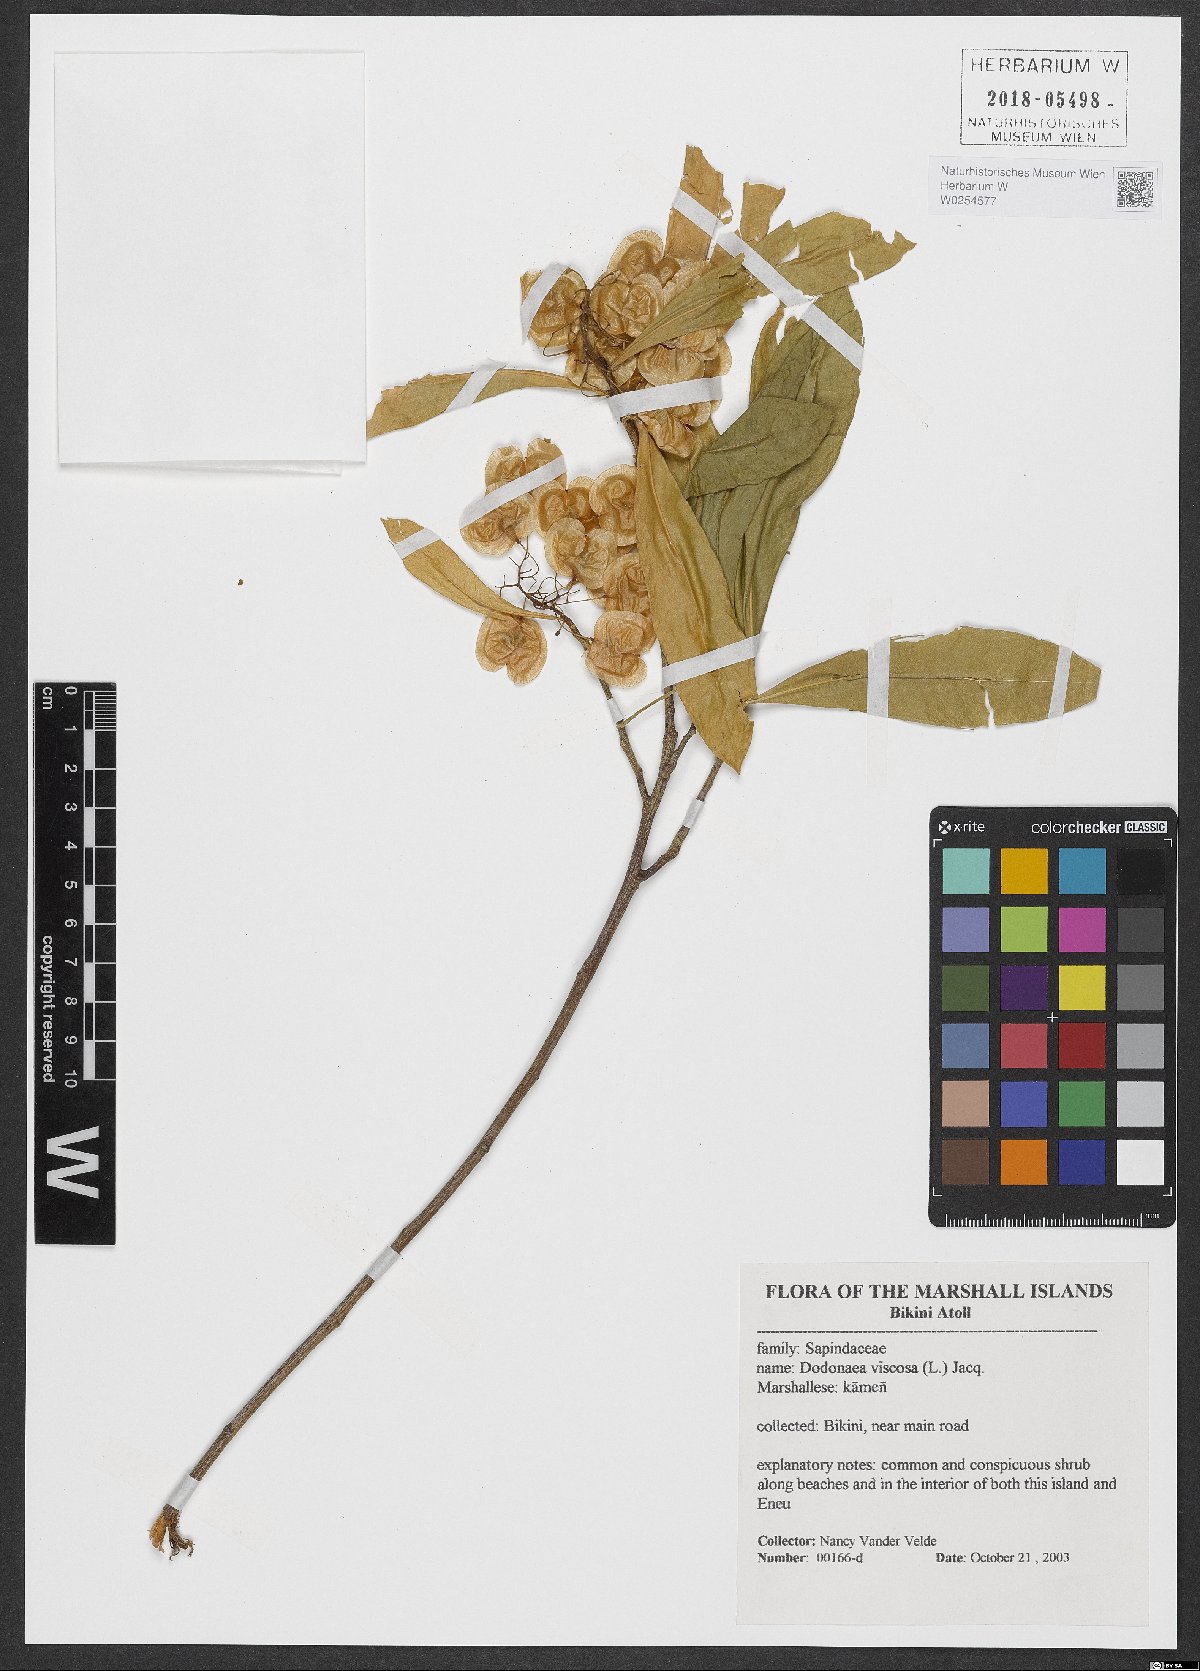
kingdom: Plantae
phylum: Tracheophyta
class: Magnoliopsida
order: Sapindales
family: Sapindaceae
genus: Dodonaea
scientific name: Dodonaea viscosa
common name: Hopbush
